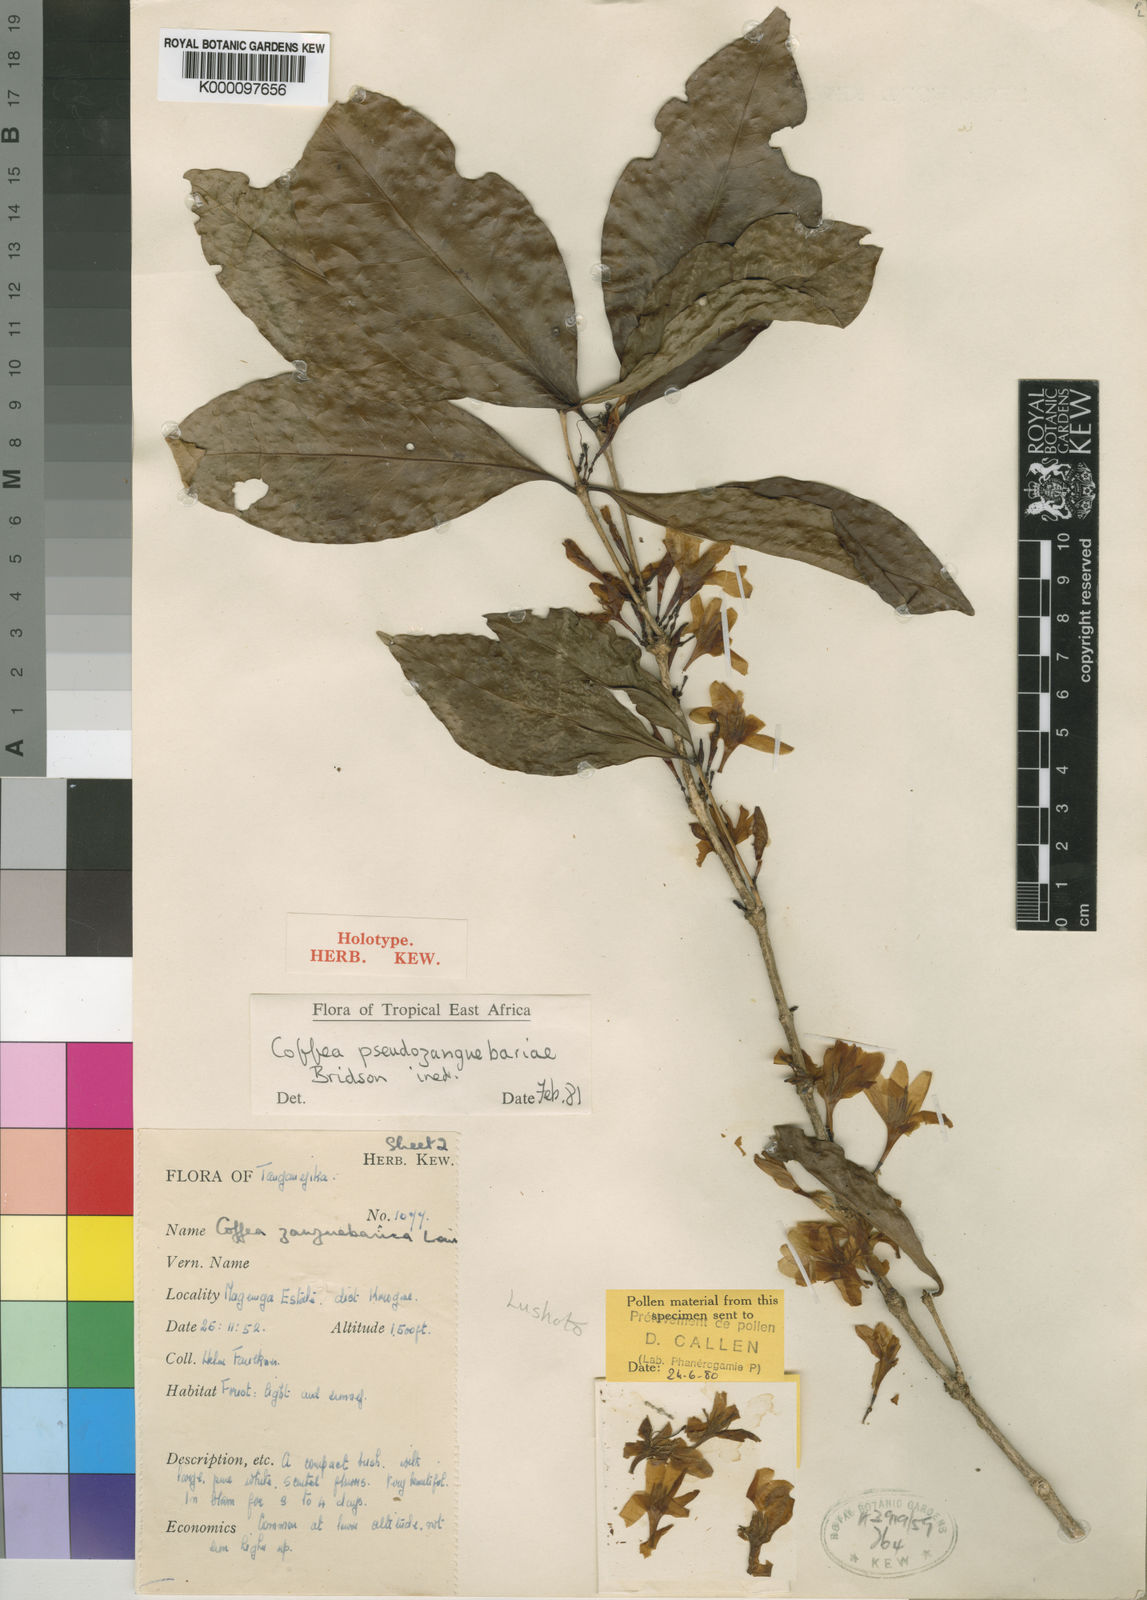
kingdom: Plantae
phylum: Tracheophyta
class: Magnoliopsida
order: Gentianales
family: Rubiaceae
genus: Coffea
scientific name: Coffea pseudozanguebariae
